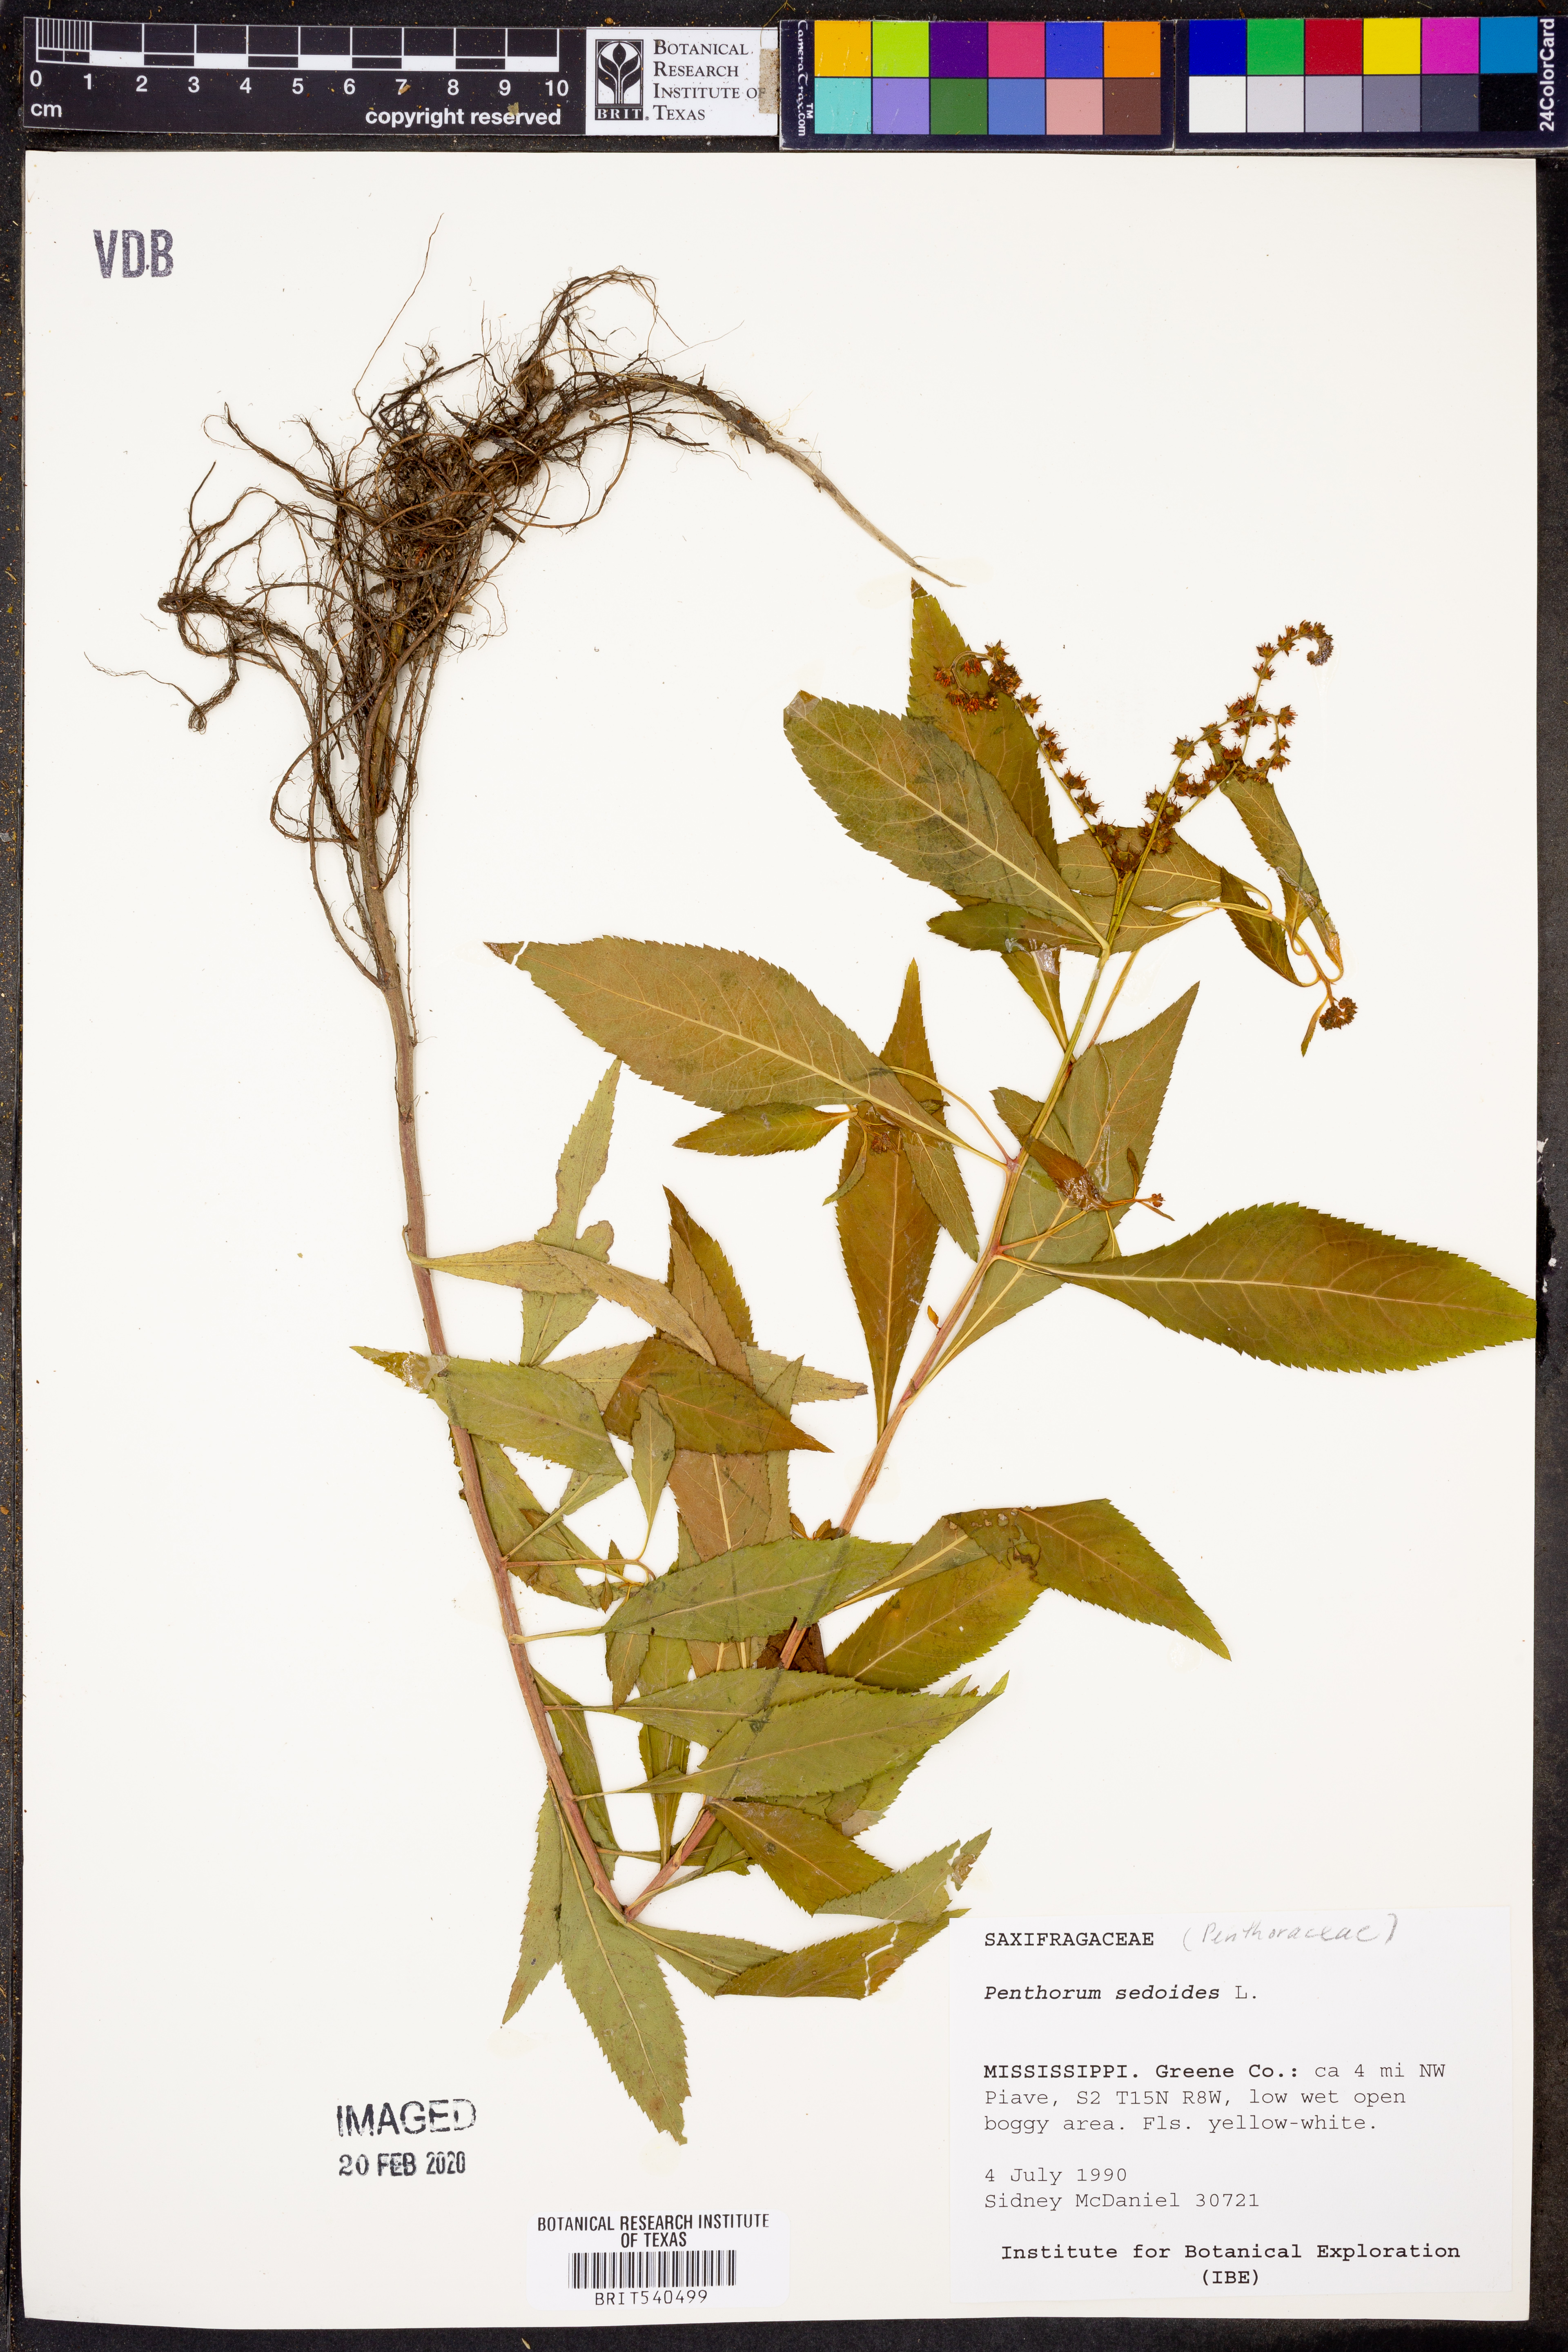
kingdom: Plantae
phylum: Tracheophyta
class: Magnoliopsida
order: Saxifragales
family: Penthoraceae
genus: Penthorum
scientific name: Penthorum sedoides
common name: Ditch stonecrop
